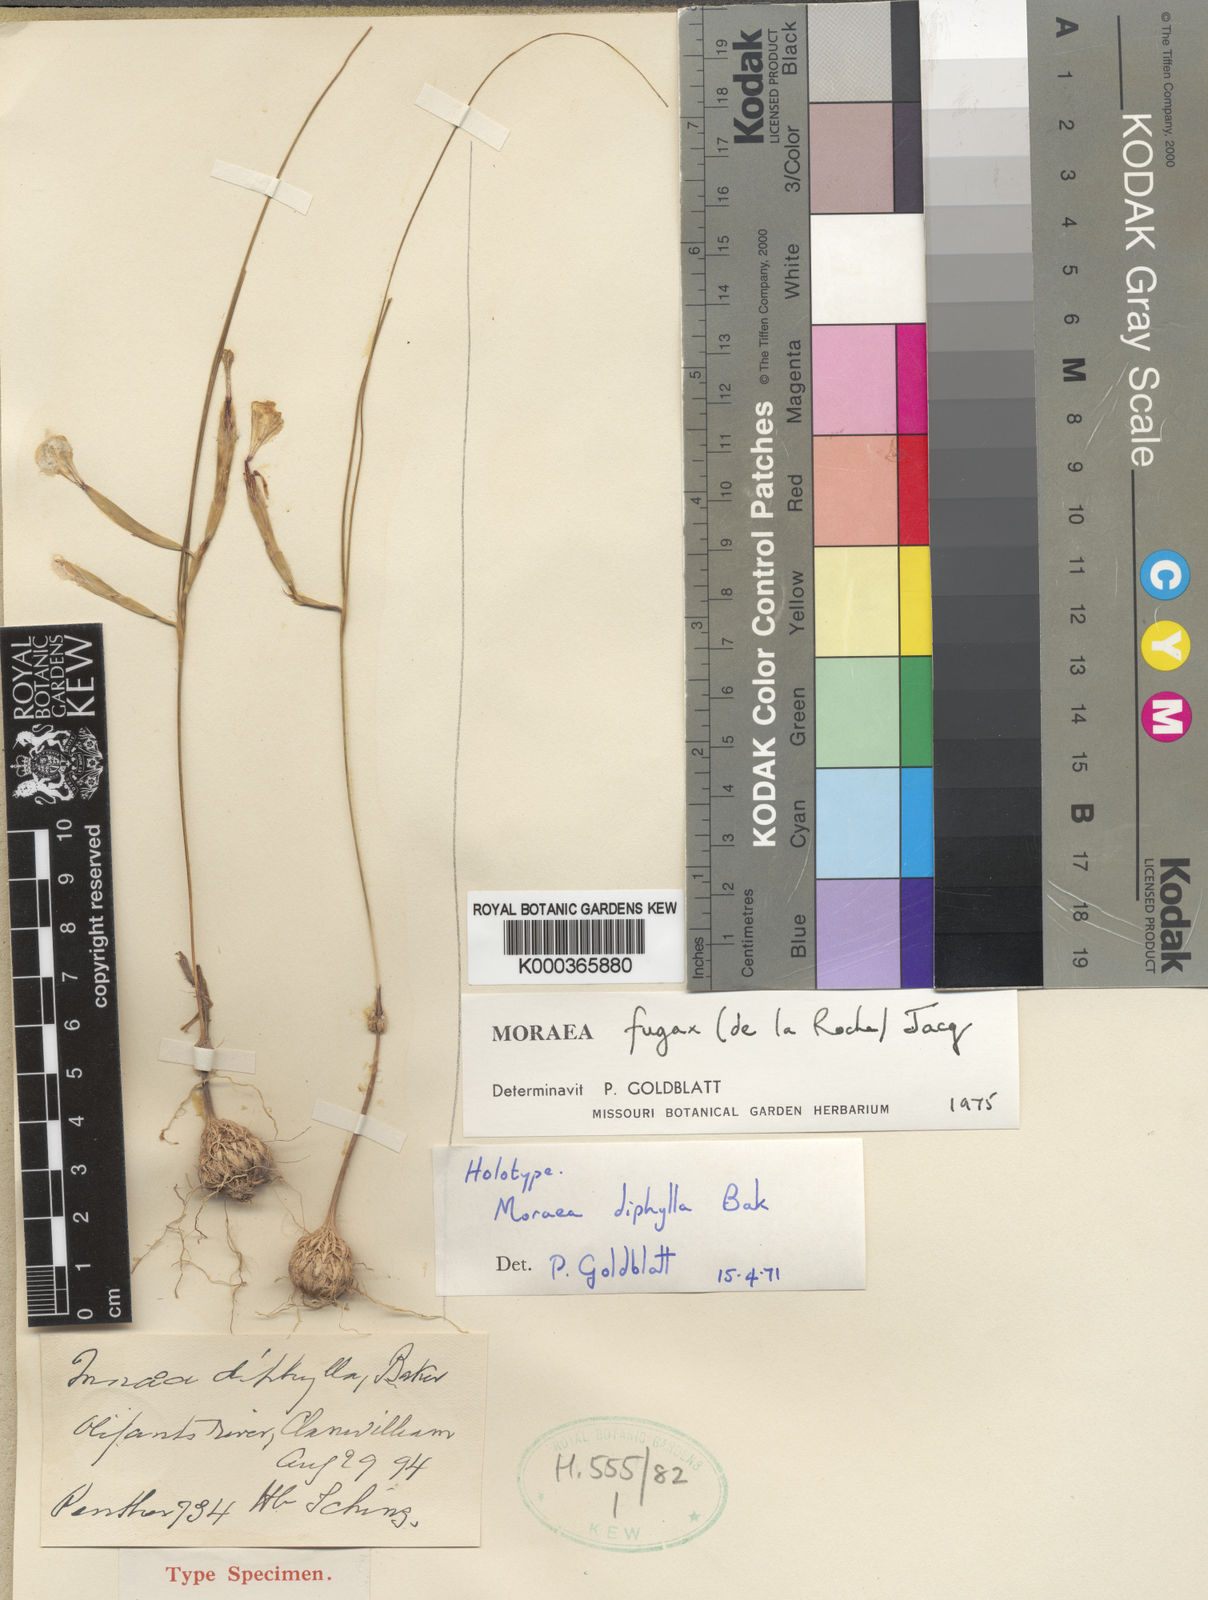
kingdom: Plantae
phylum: Tracheophyta
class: Liliopsida
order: Asparagales
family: Iridaceae
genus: Moraea
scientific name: Moraea fugax
